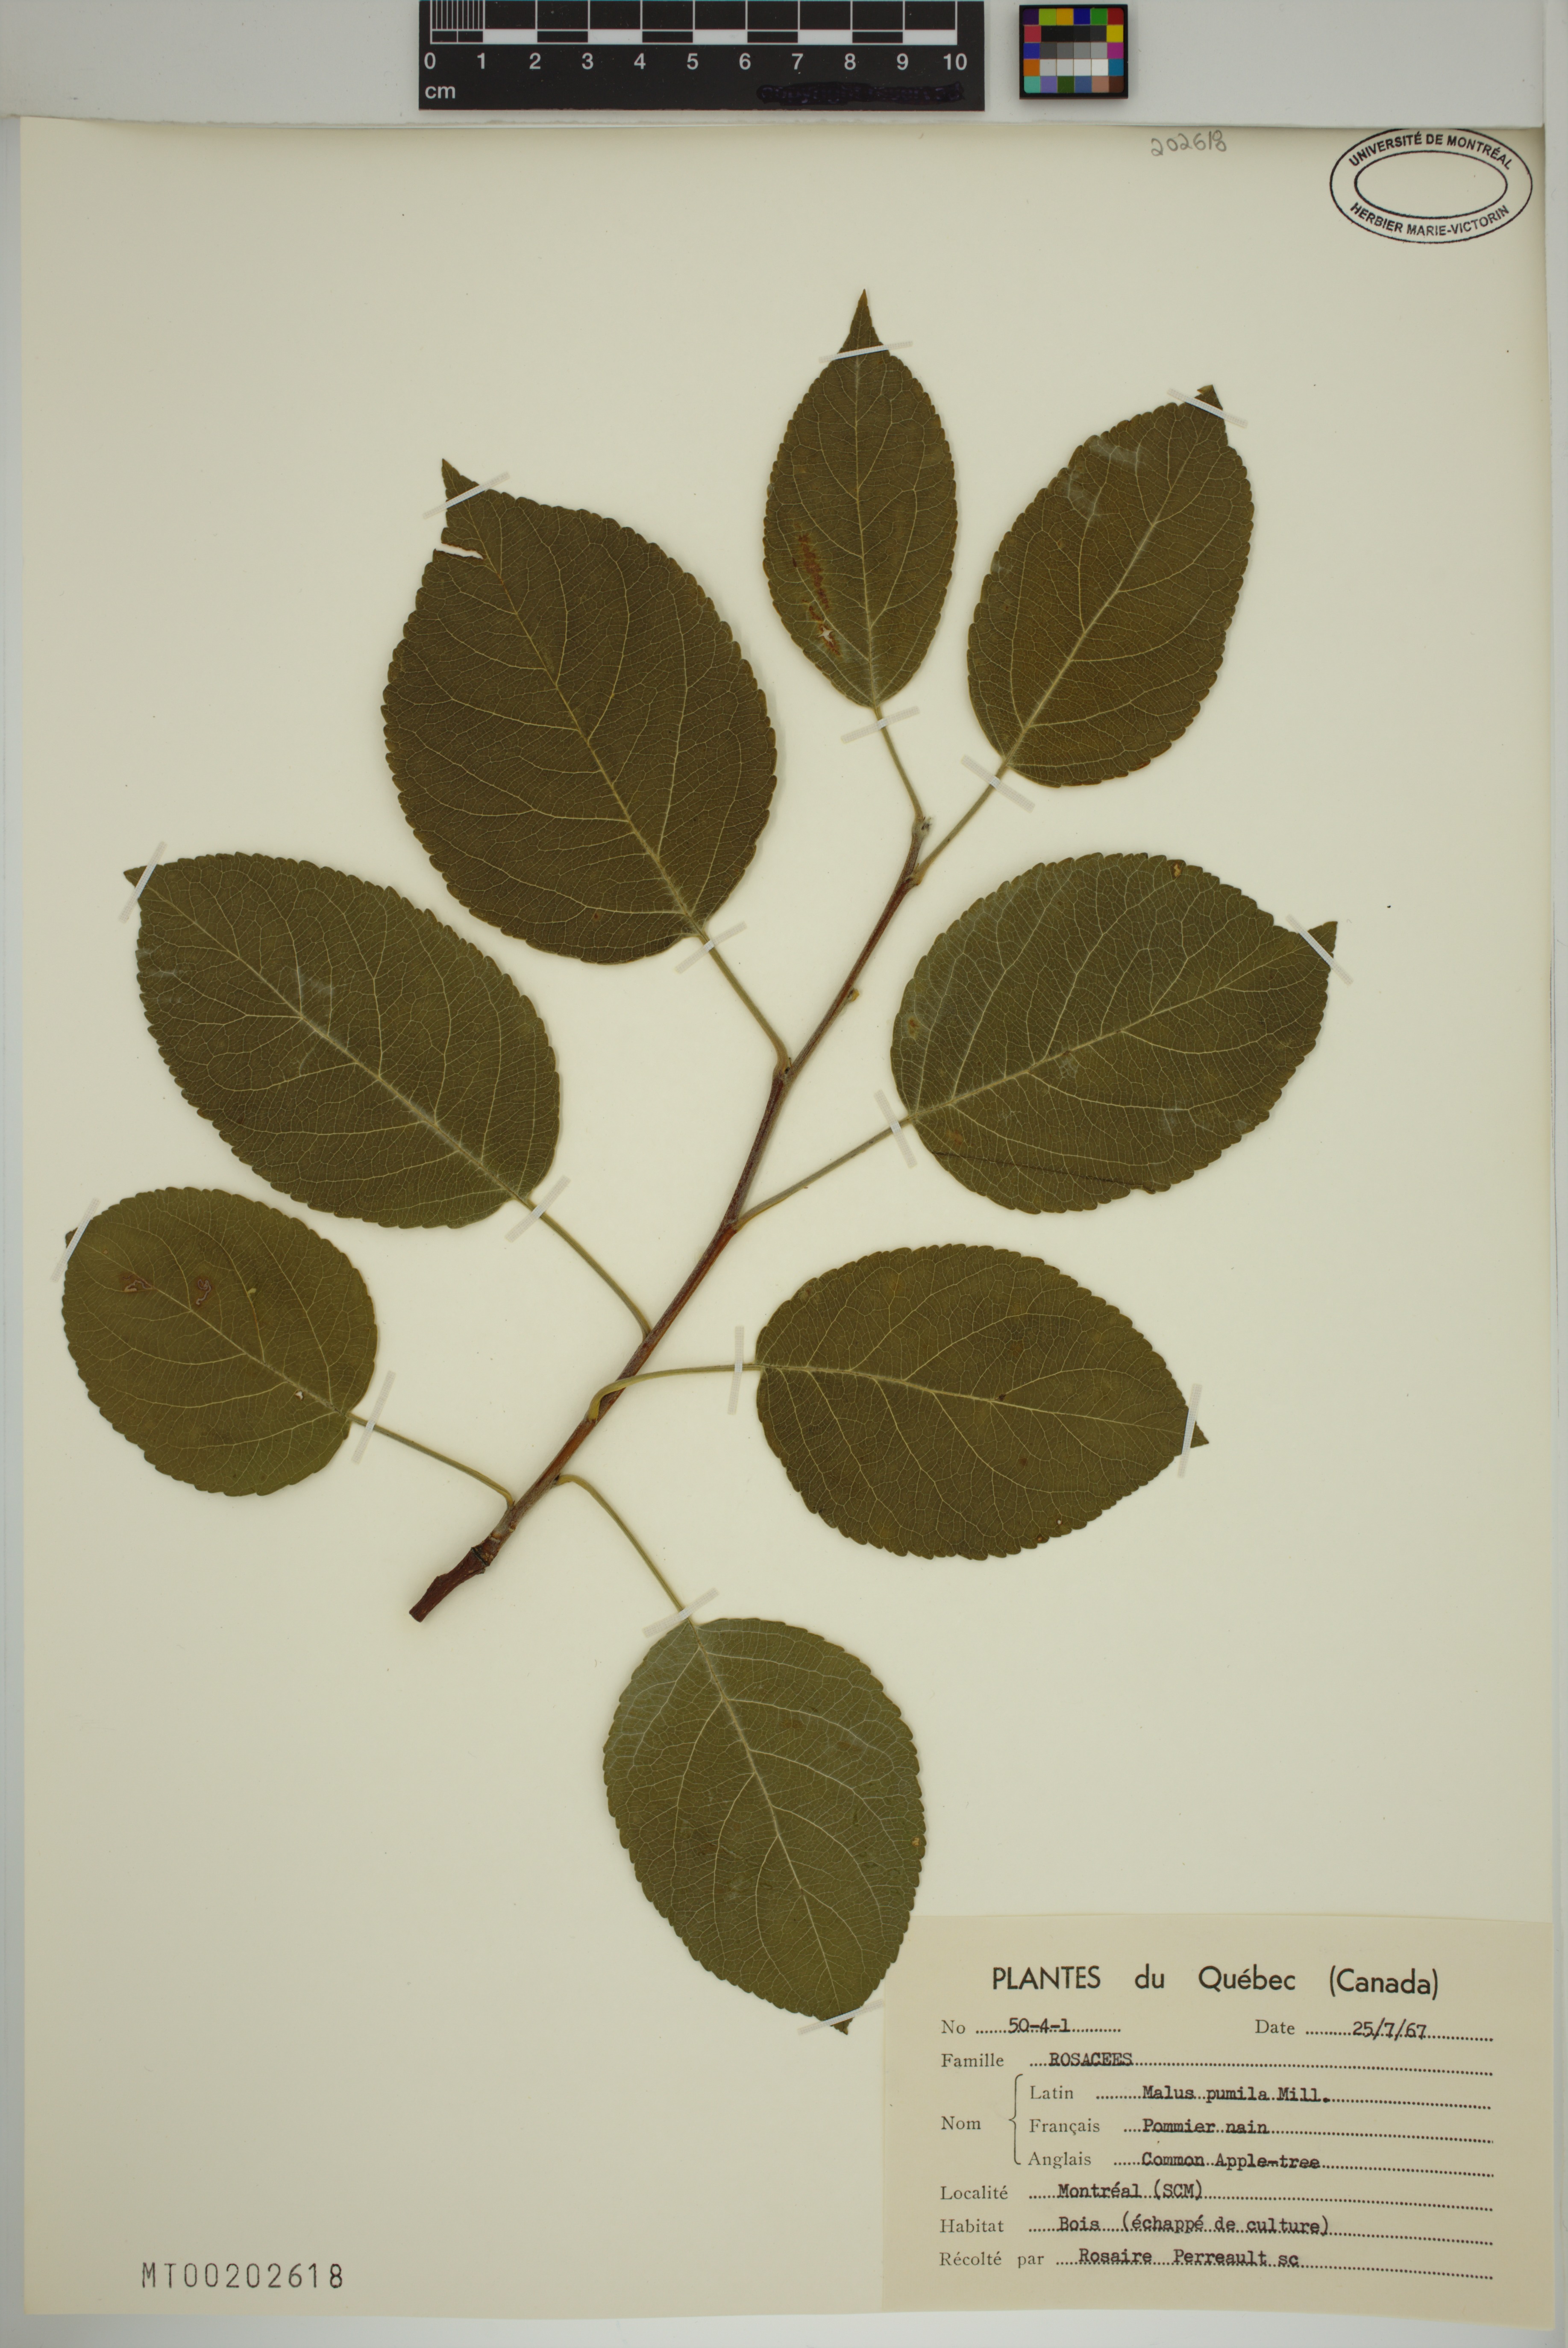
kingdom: Plantae
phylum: Tracheophyta
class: Magnoliopsida
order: Rosales
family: Rosaceae
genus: Malus
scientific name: Malus domestica
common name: Apple
